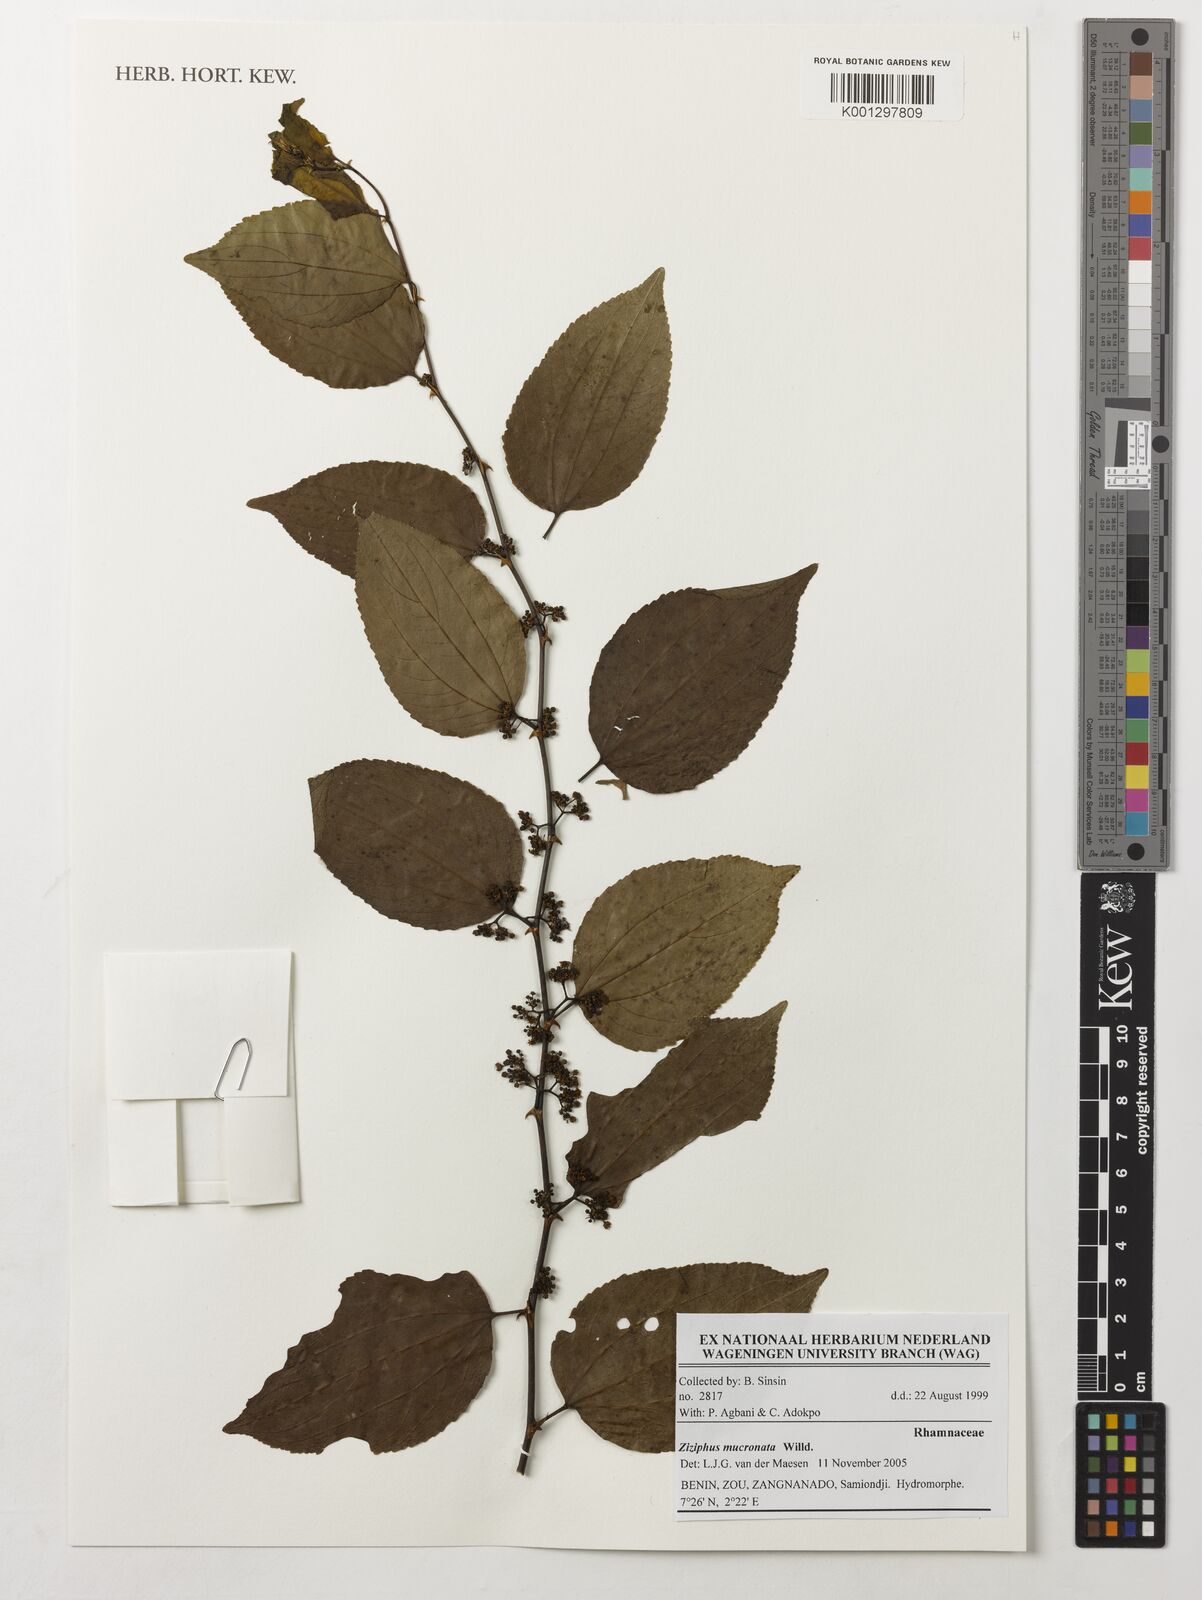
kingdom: Plantae
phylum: Tracheophyta
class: Magnoliopsida
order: Rosales
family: Rhamnaceae
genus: Ziziphus
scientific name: Ziziphus mucronata
